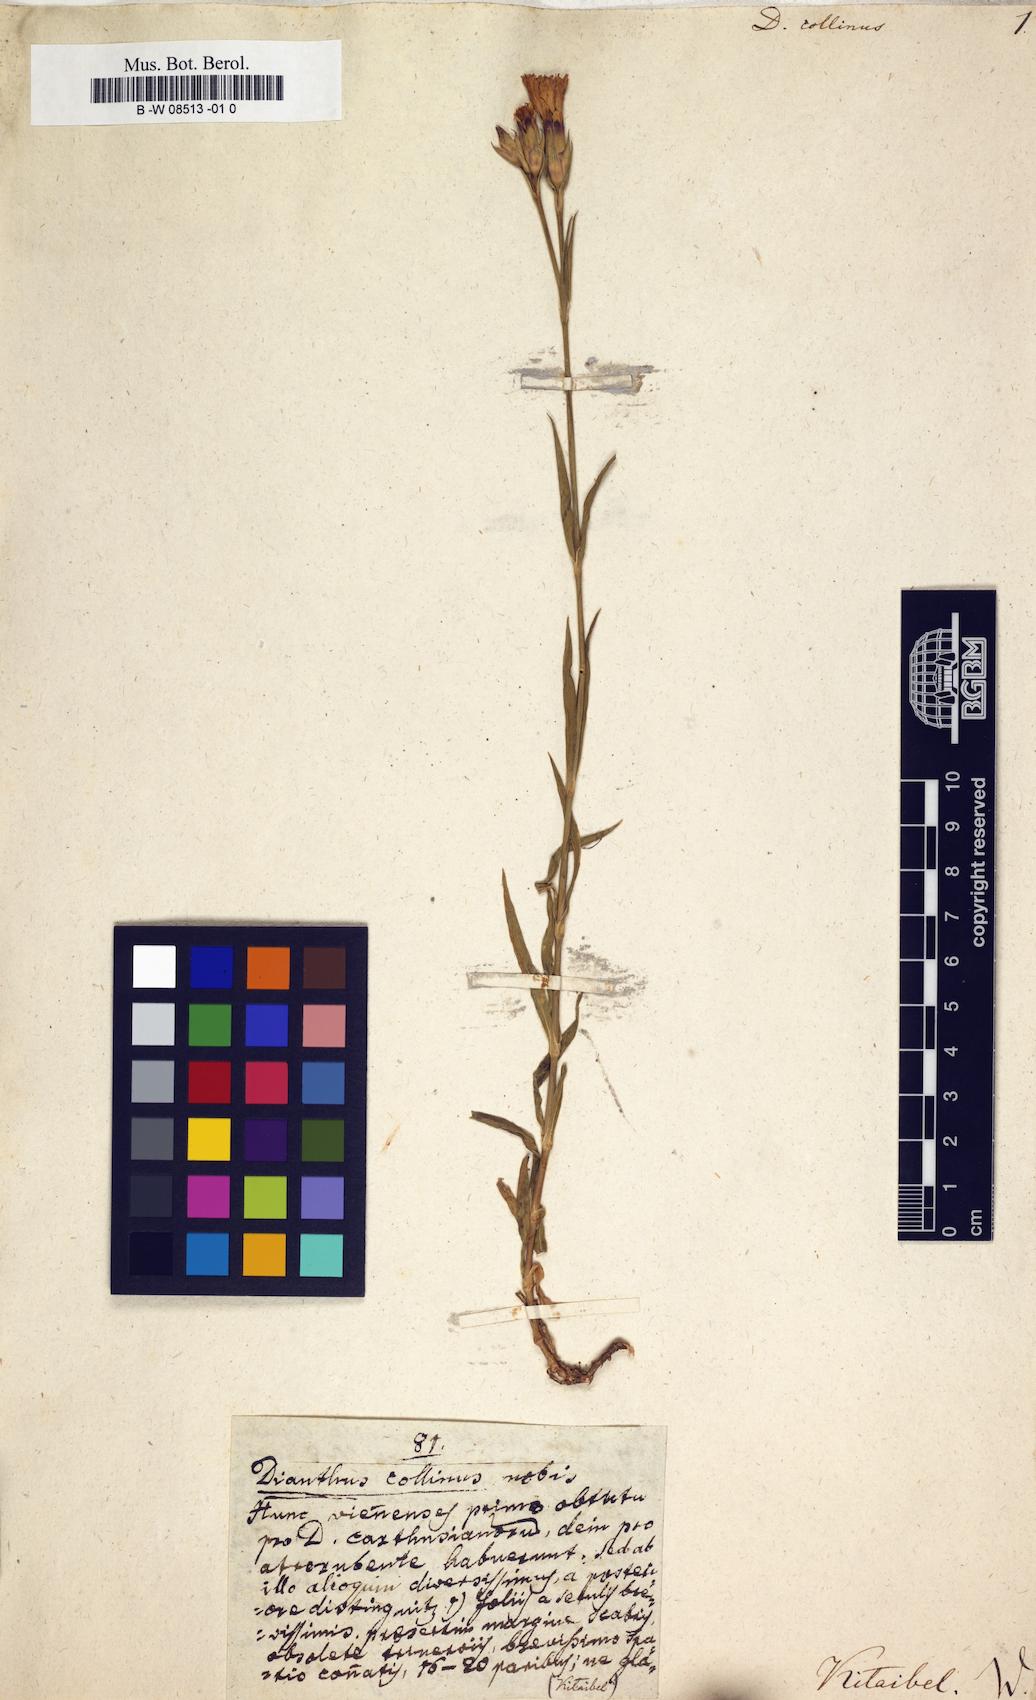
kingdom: Plantae
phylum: Tracheophyta
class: Magnoliopsida
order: Caryophyllales
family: Caryophyllaceae
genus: Dianthus
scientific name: Dianthus collinus
